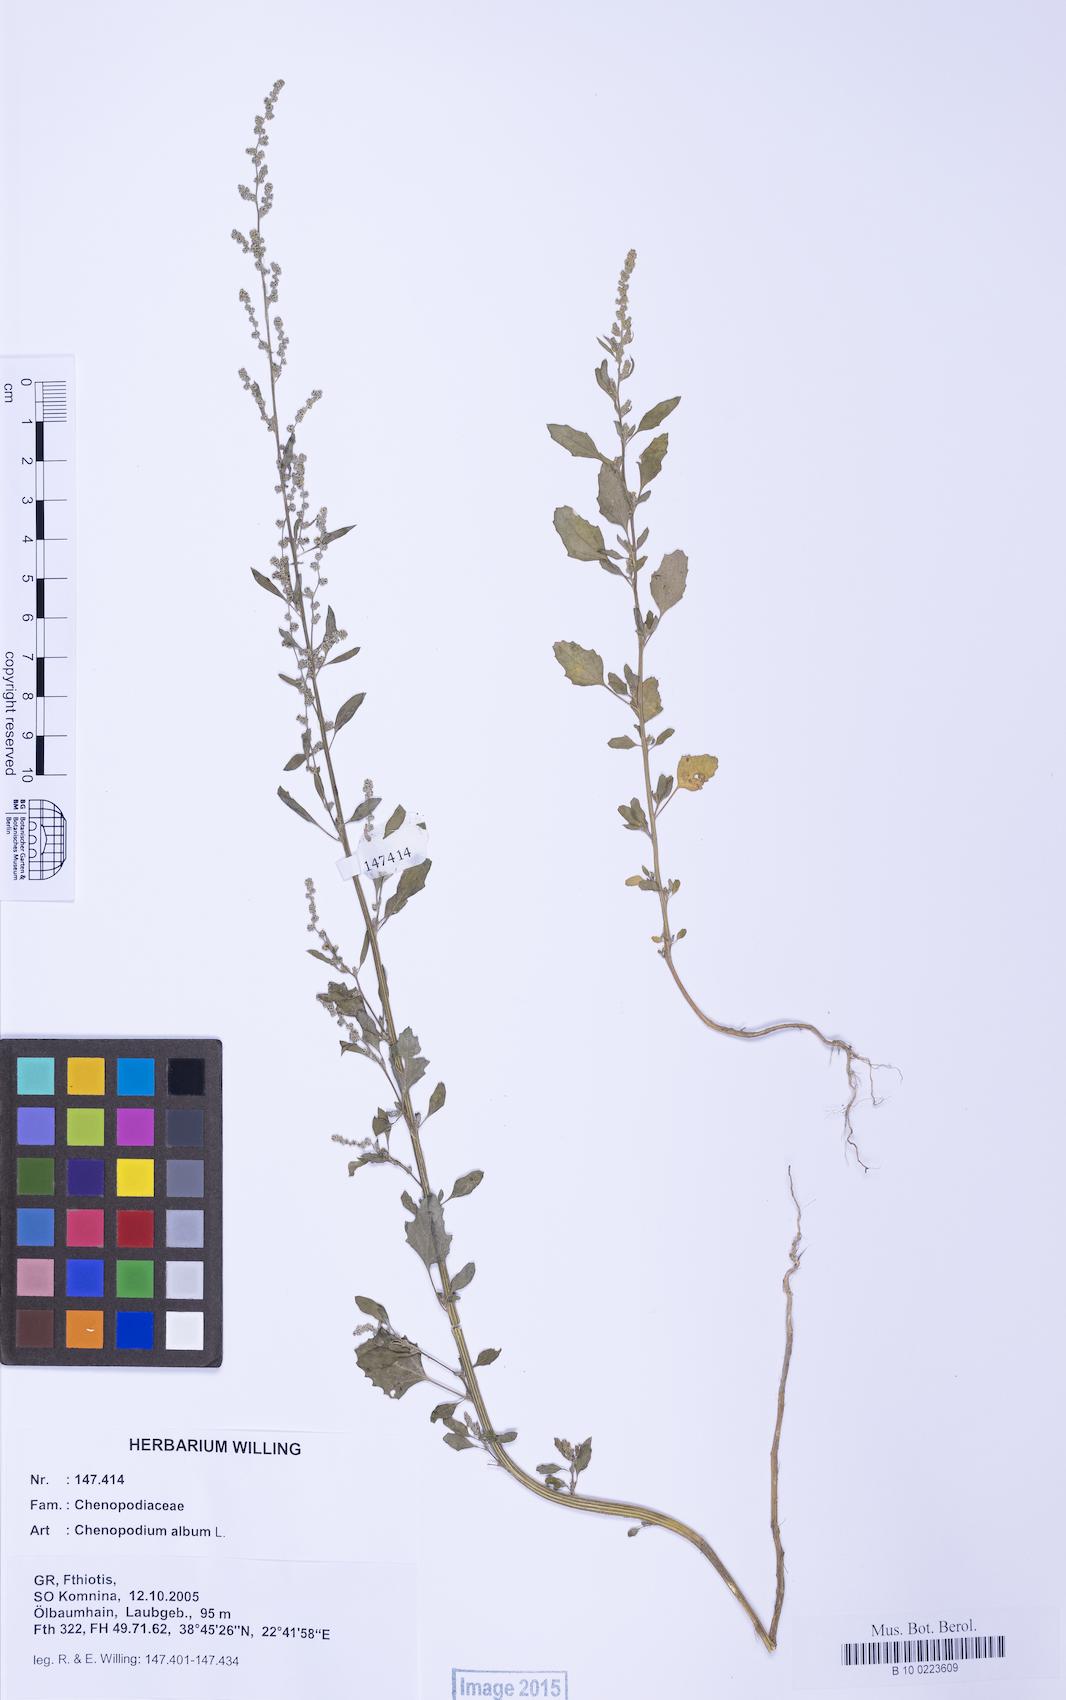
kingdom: Plantae
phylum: Tracheophyta
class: Magnoliopsida
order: Caryophyllales
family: Amaranthaceae
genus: Chenopodium
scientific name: Chenopodium album
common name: Fat-hen
